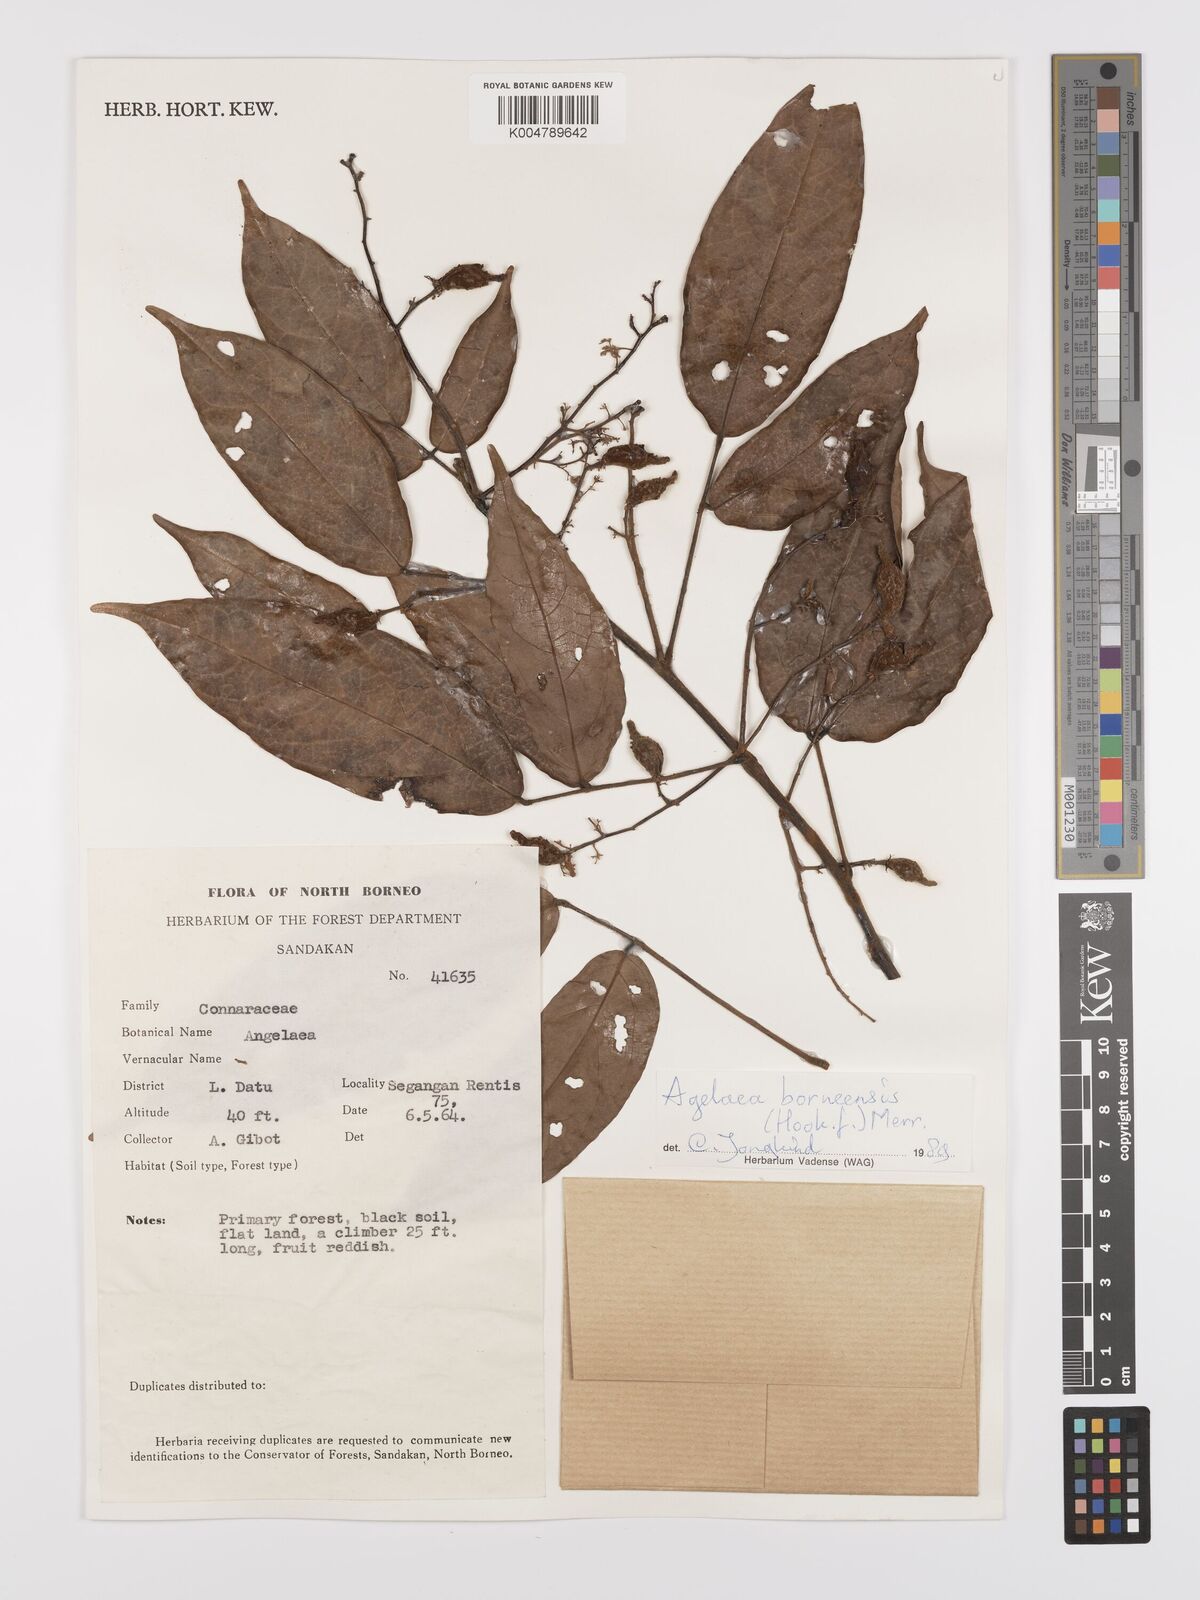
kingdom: Plantae
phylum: Tracheophyta
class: Magnoliopsida
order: Oxalidales
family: Connaraceae
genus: Agelaea
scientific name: Agelaea borneensis
